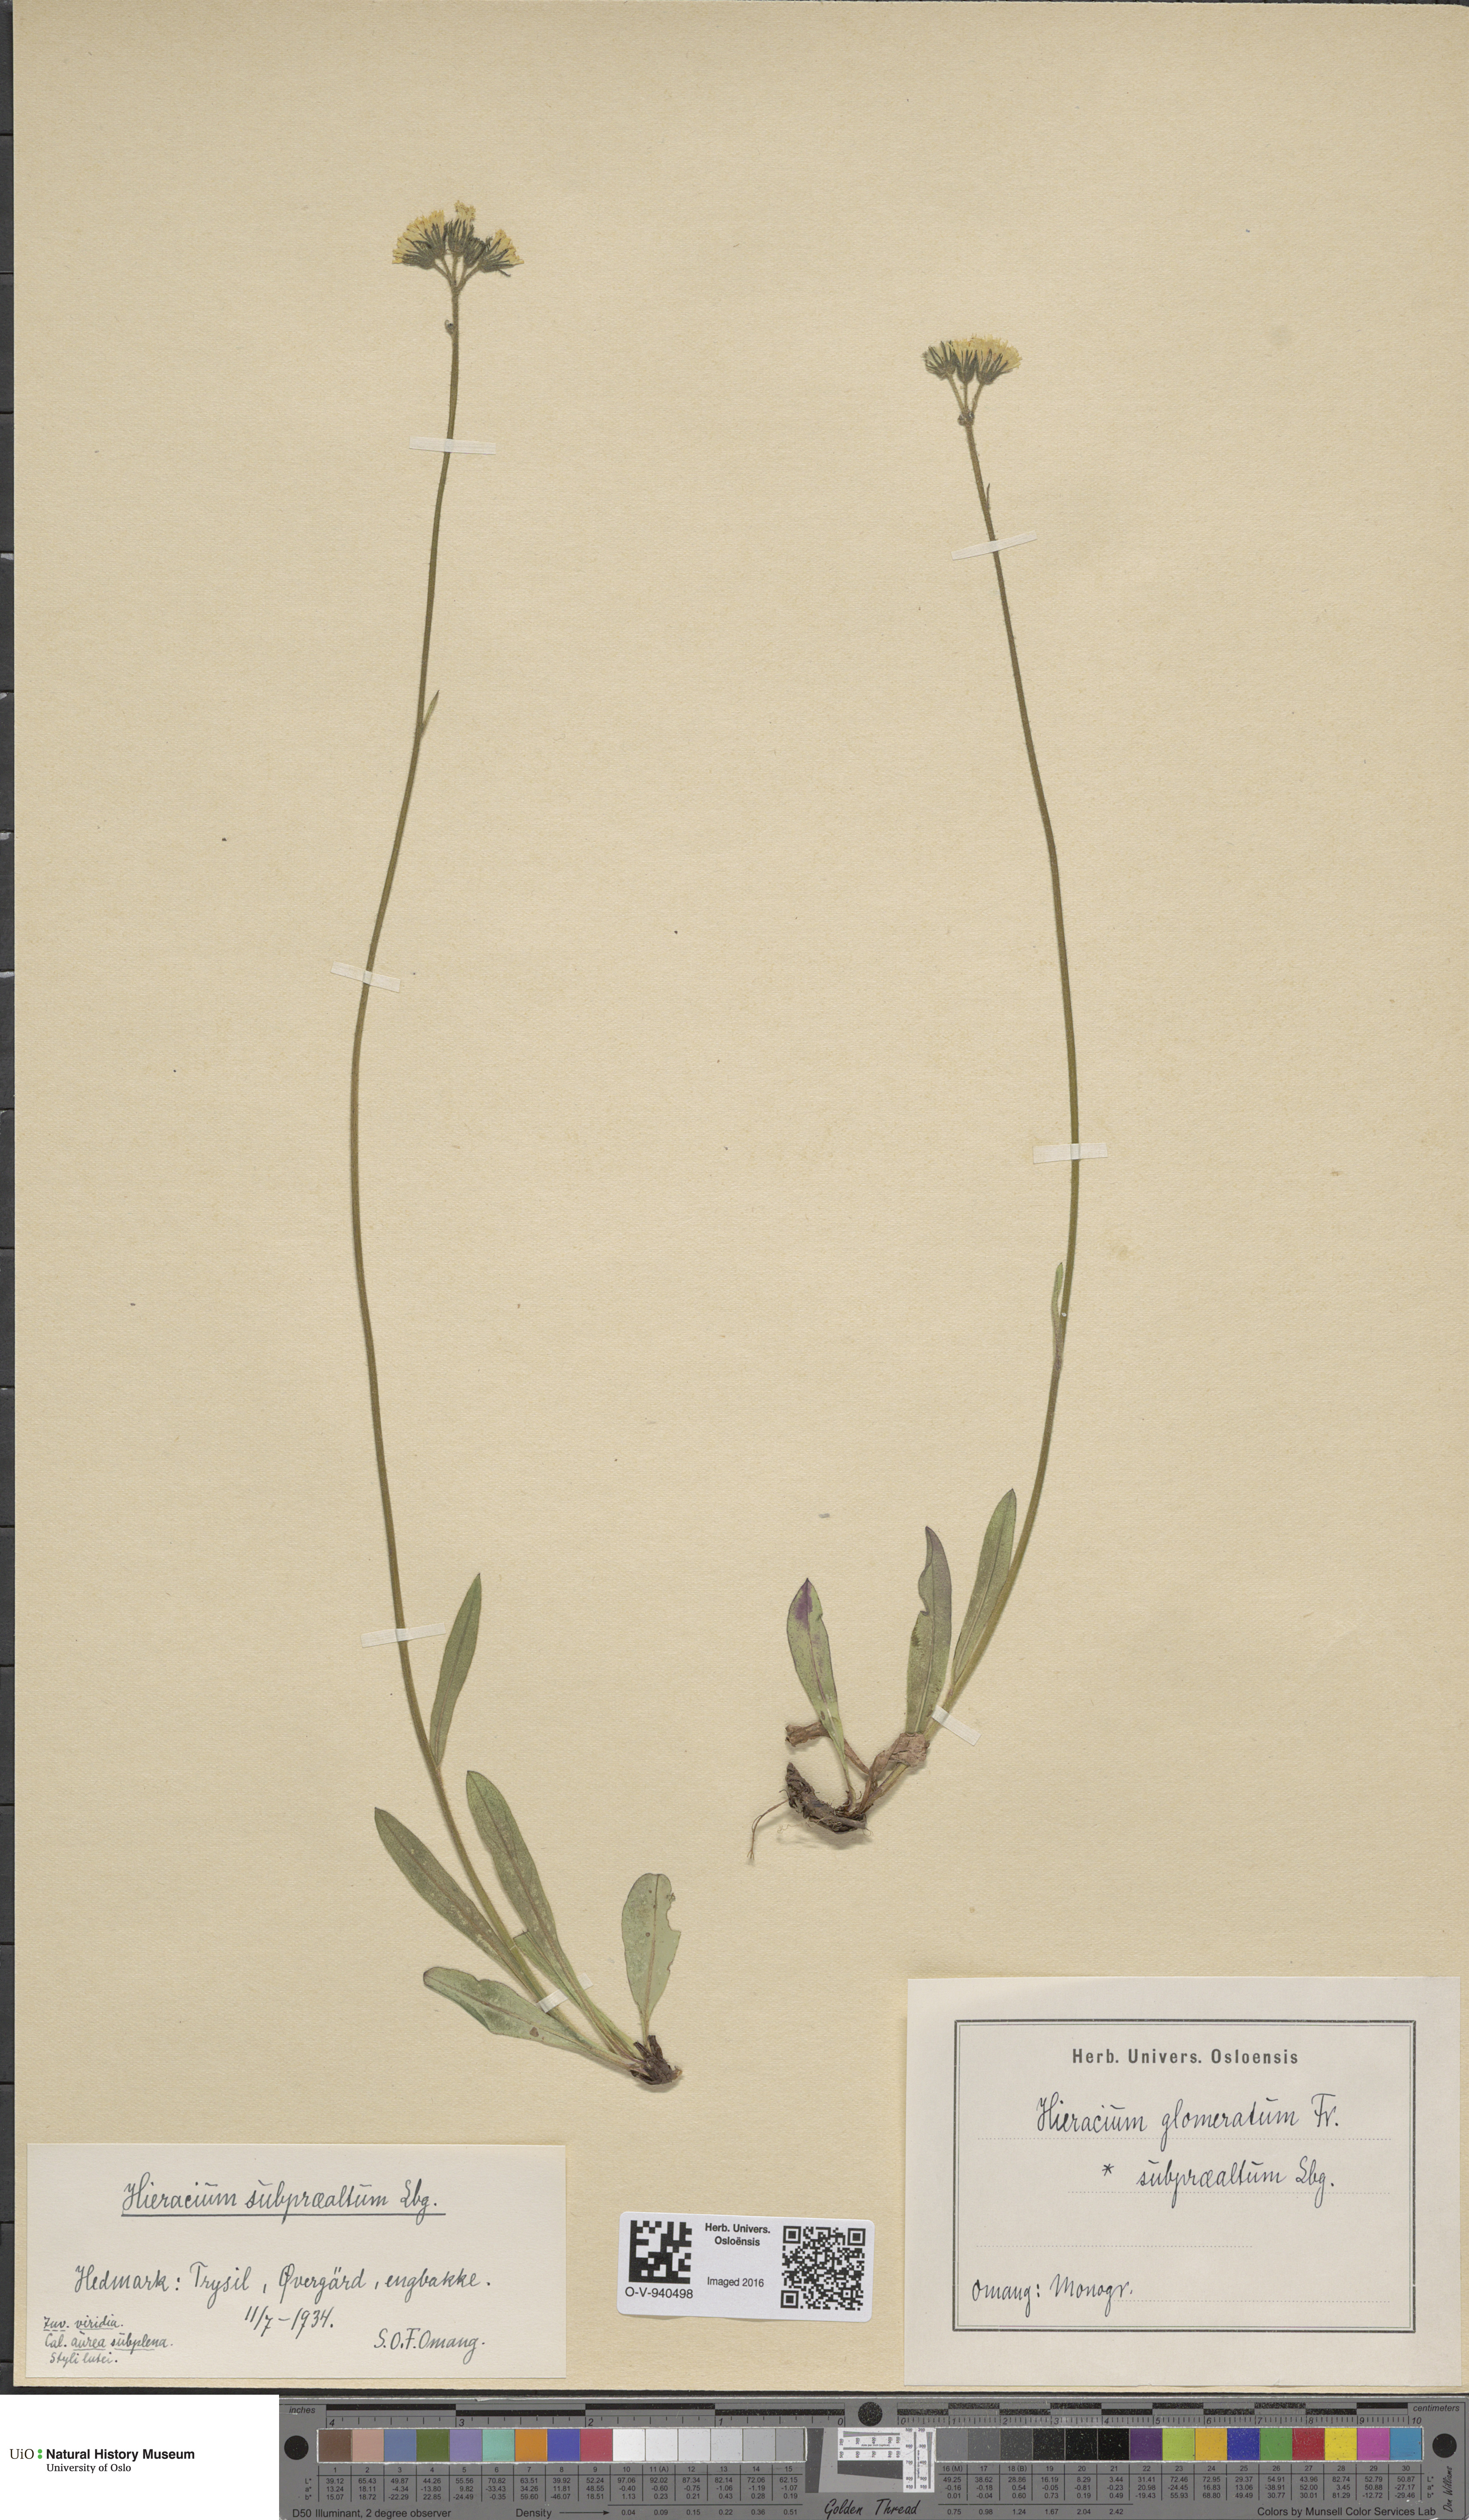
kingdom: Plantae
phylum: Tracheophyta
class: Magnoliopsida
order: Asterales
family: Asteraceae
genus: Pilosella
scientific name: Pilosella glomerata
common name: Queen devil hawkweed
